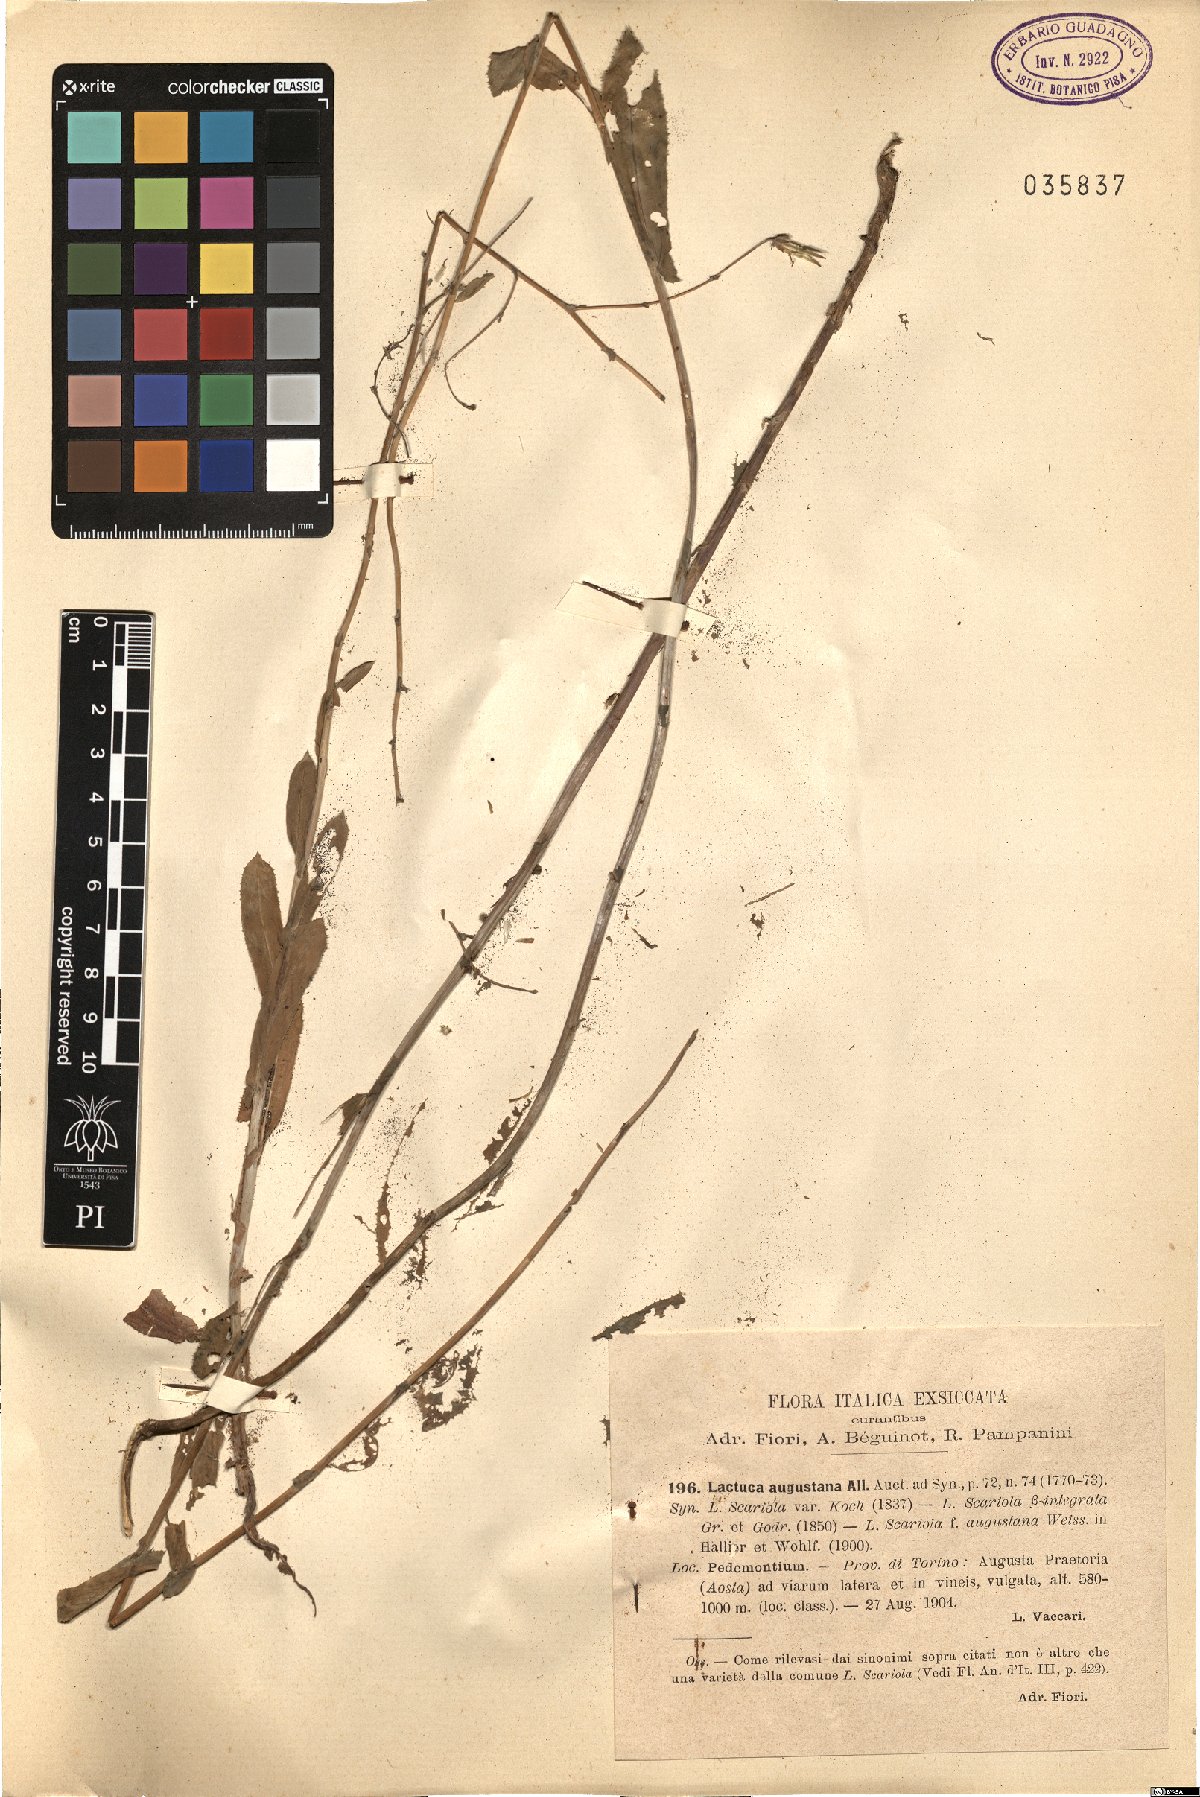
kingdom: Plantae
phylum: Tracheophyta
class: Magnoliopsida
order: Asterales
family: Asteraceae
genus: Lactuca
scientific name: Lactuca serriola
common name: Prickly lettuce
